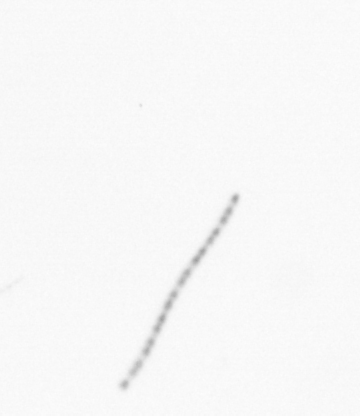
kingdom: Chromista
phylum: Ochrophyta
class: Bacillariophyceae
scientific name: Bacillariophyceae
